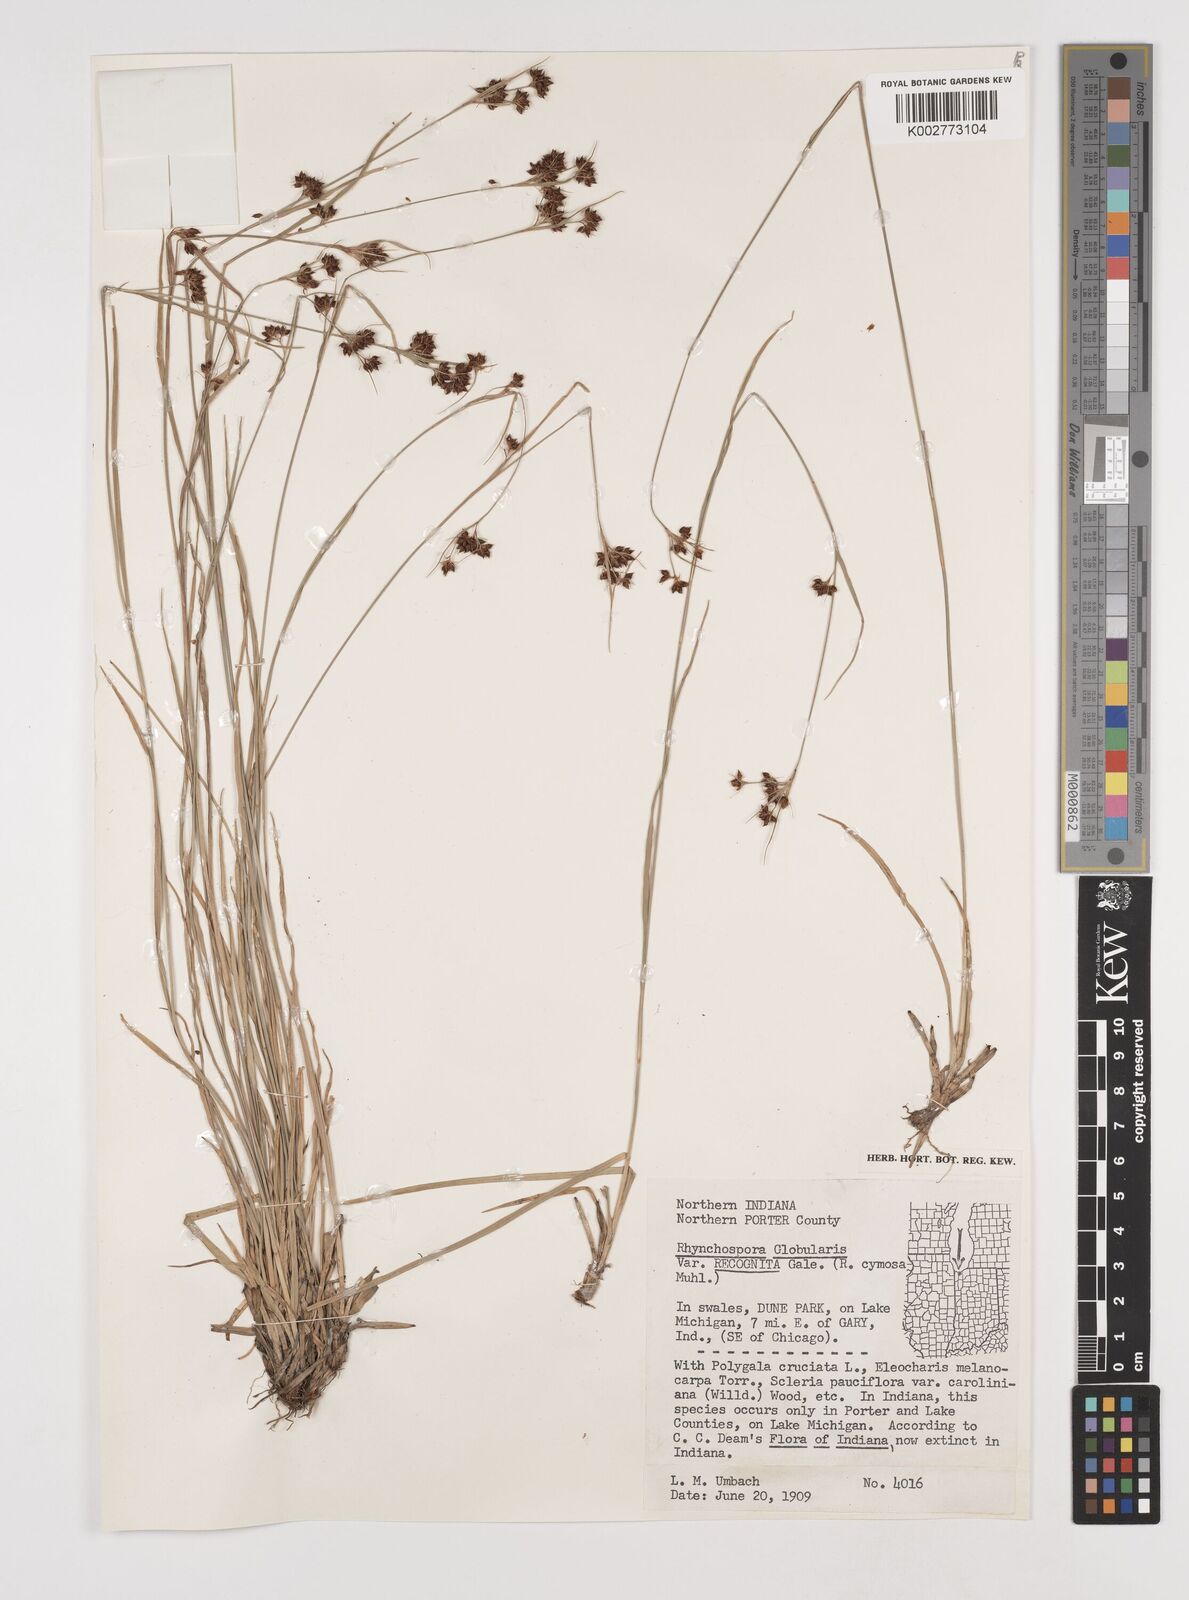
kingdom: Plantae
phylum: Tracheophyta
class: Liliopsida
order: Poales
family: Cyperaceae
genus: Rhynchospora
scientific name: Rhynchospora recognita
